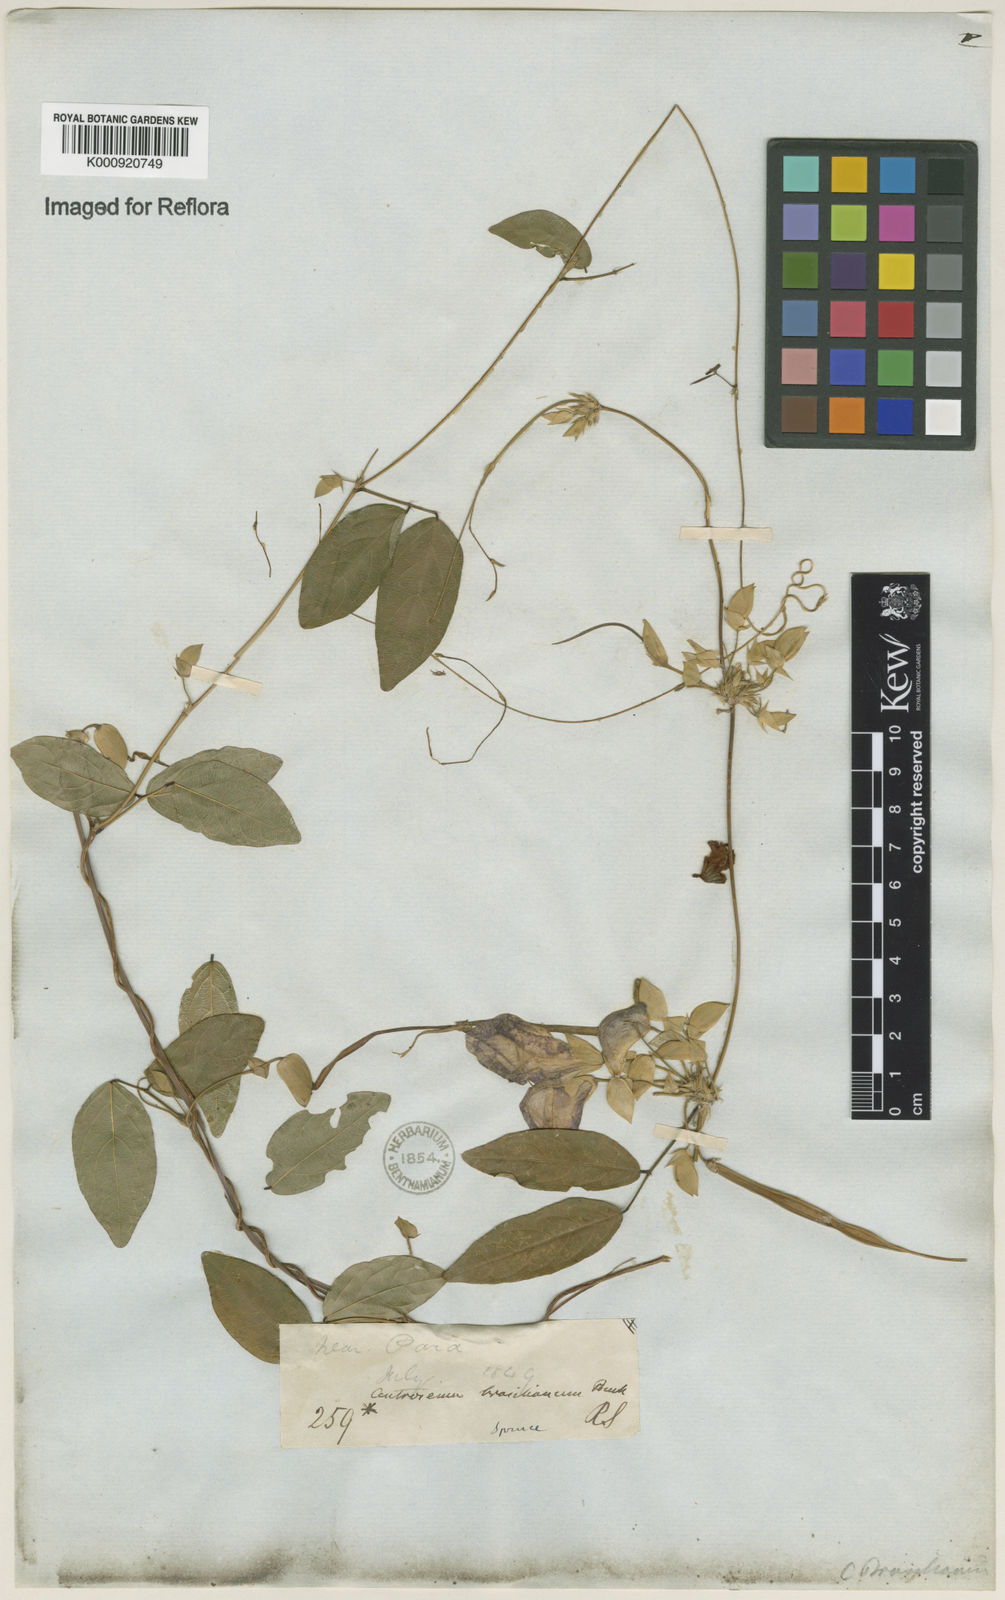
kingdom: Plantae
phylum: Tracheophyta
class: Magnoliopsida
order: Fabales
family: Fabaceae
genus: Centrosema
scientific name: Centrosema brasilianum
